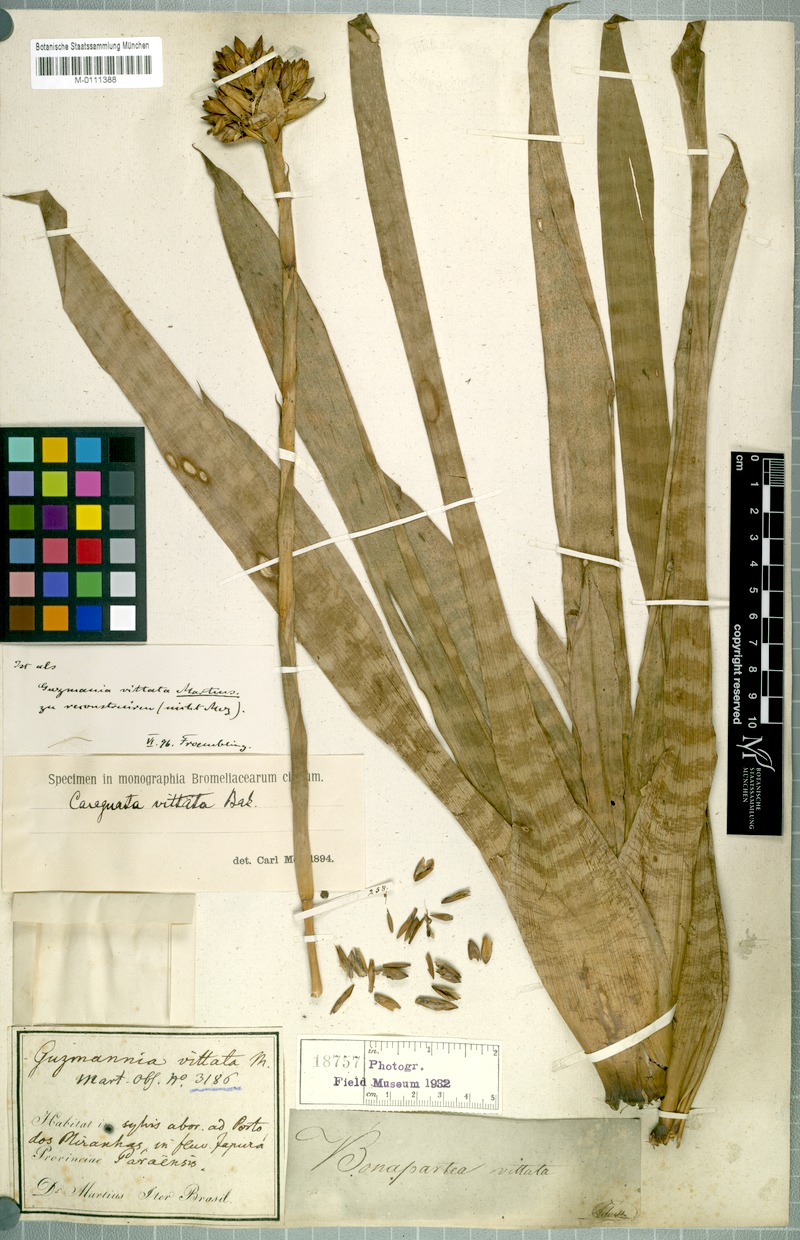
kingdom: Plantae
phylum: Tracheophyta
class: Liliopsida
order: Poales
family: Bromeliaceae
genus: Guzmania
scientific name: Guzmania vittata
